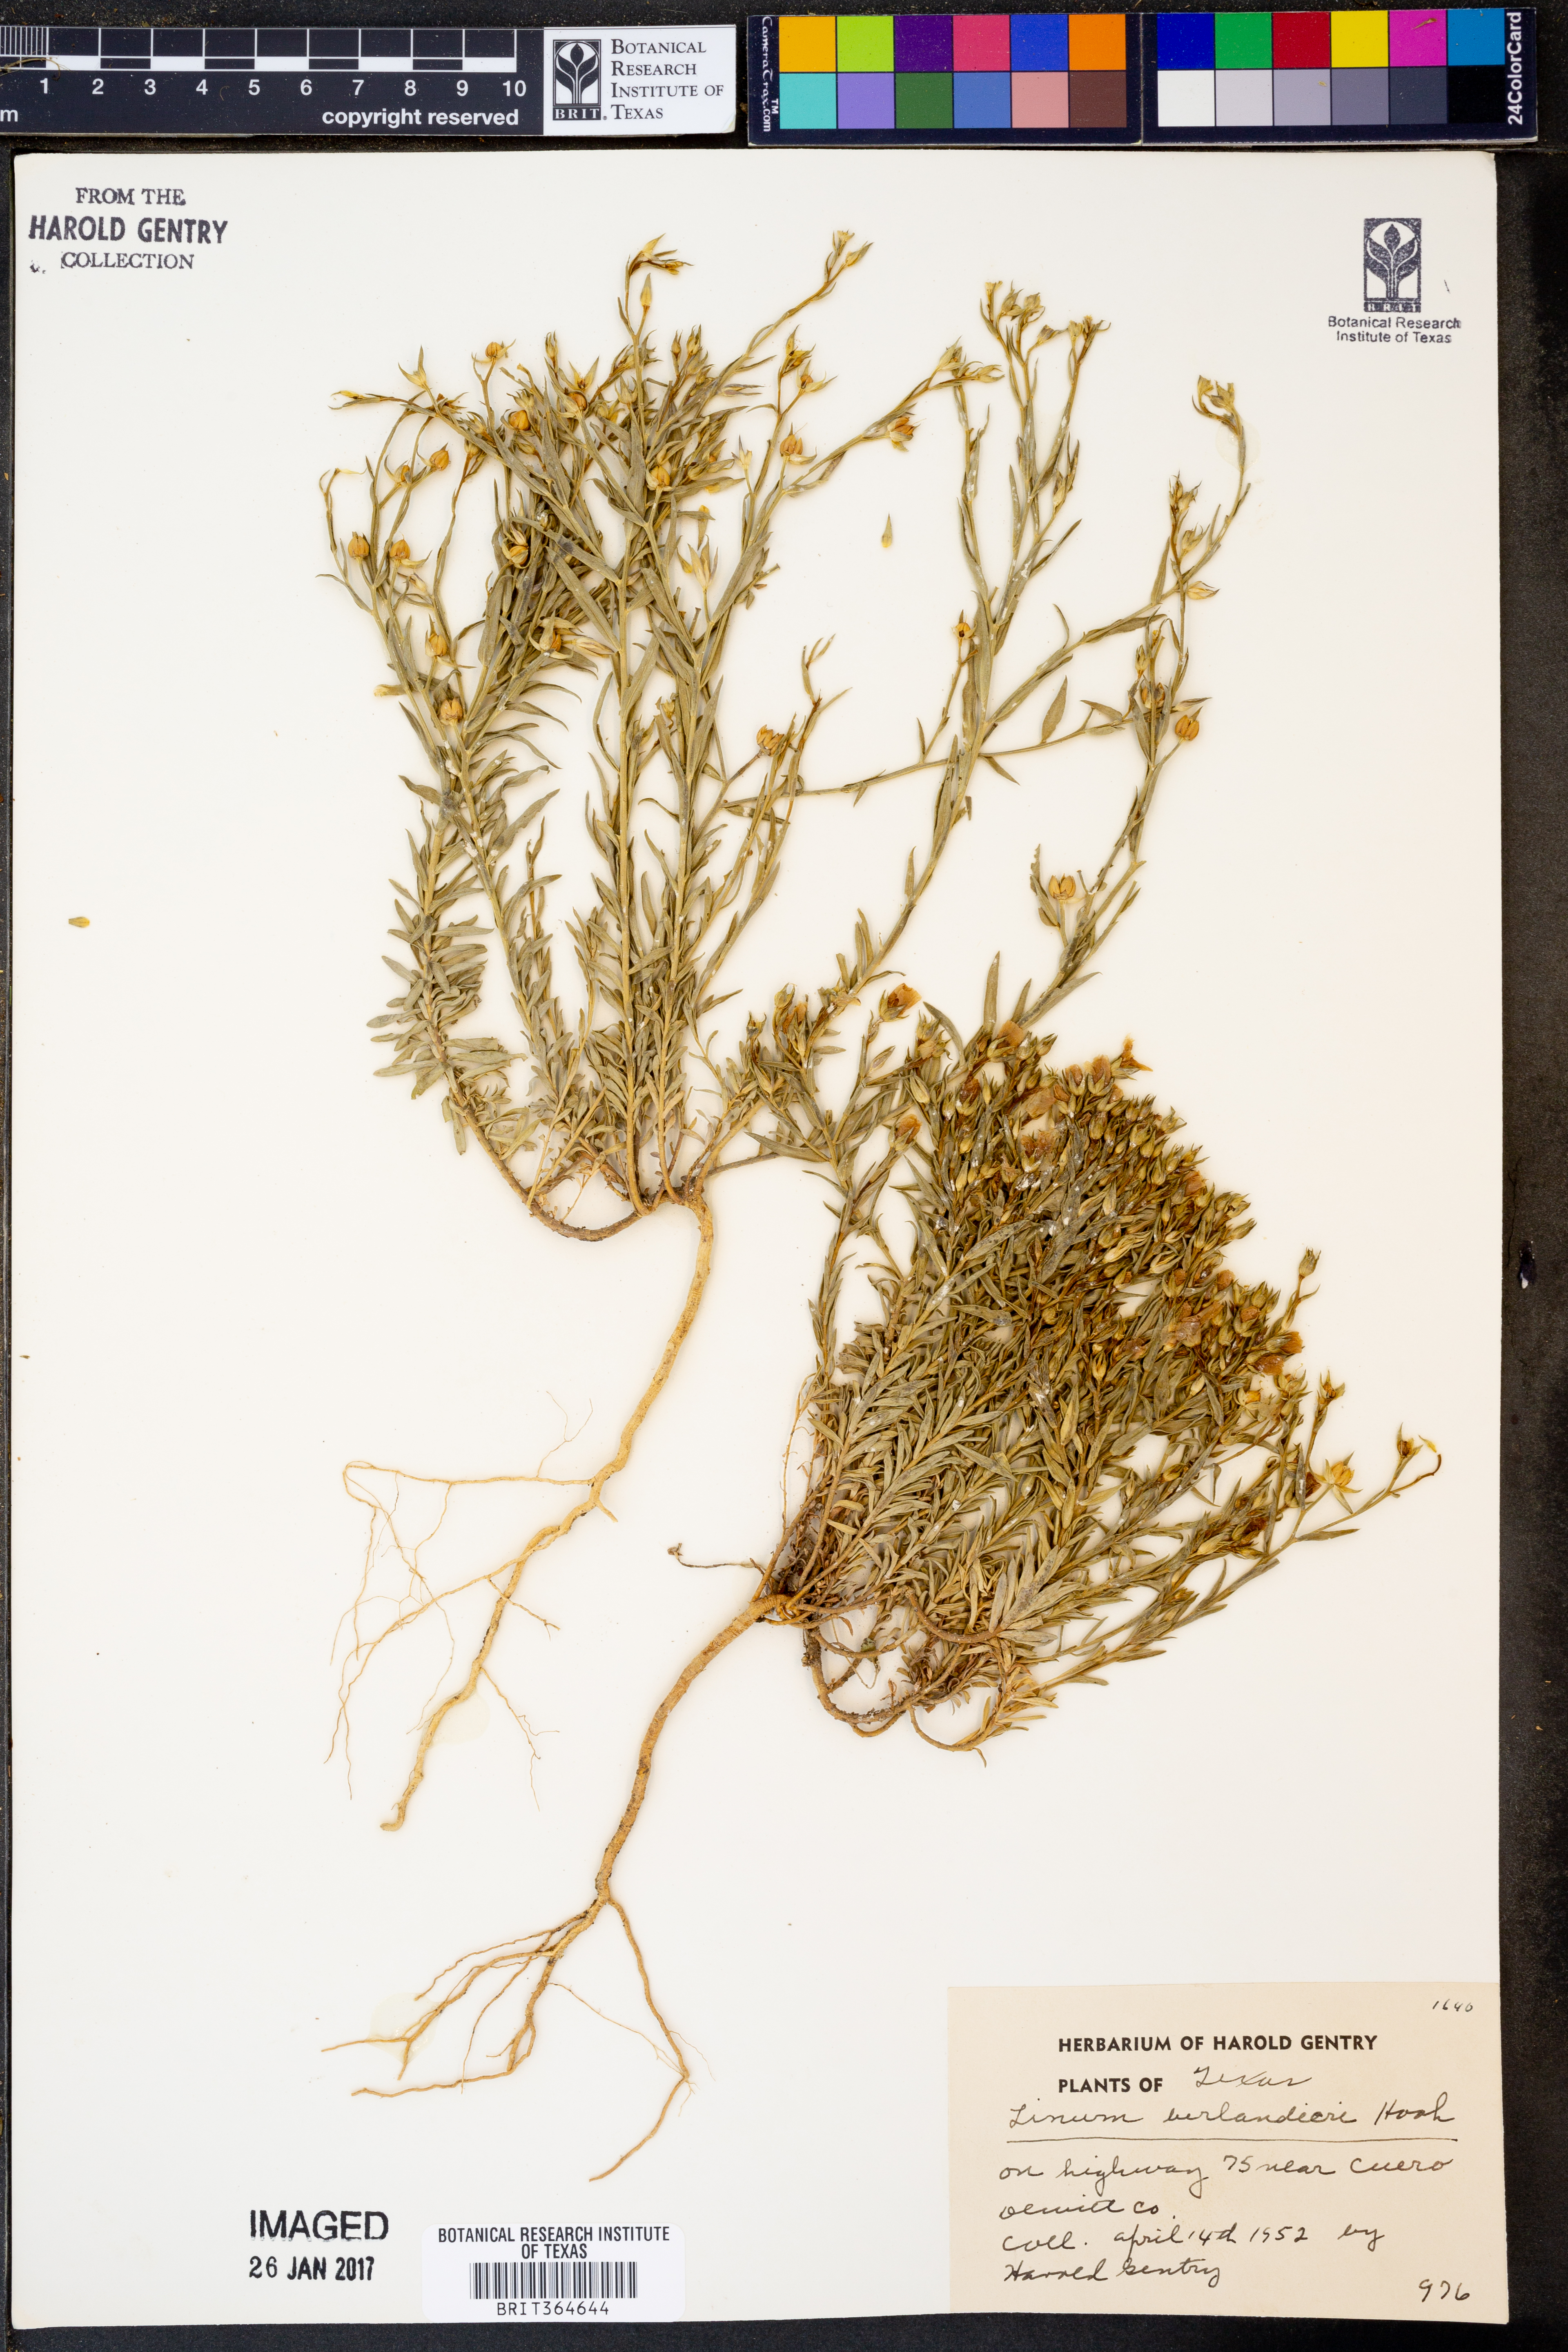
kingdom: Plantae
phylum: Tracheophyta
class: Magnoliopsida
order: Malpighiales
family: Linaceae
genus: Linum
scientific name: Linum berlandieri
